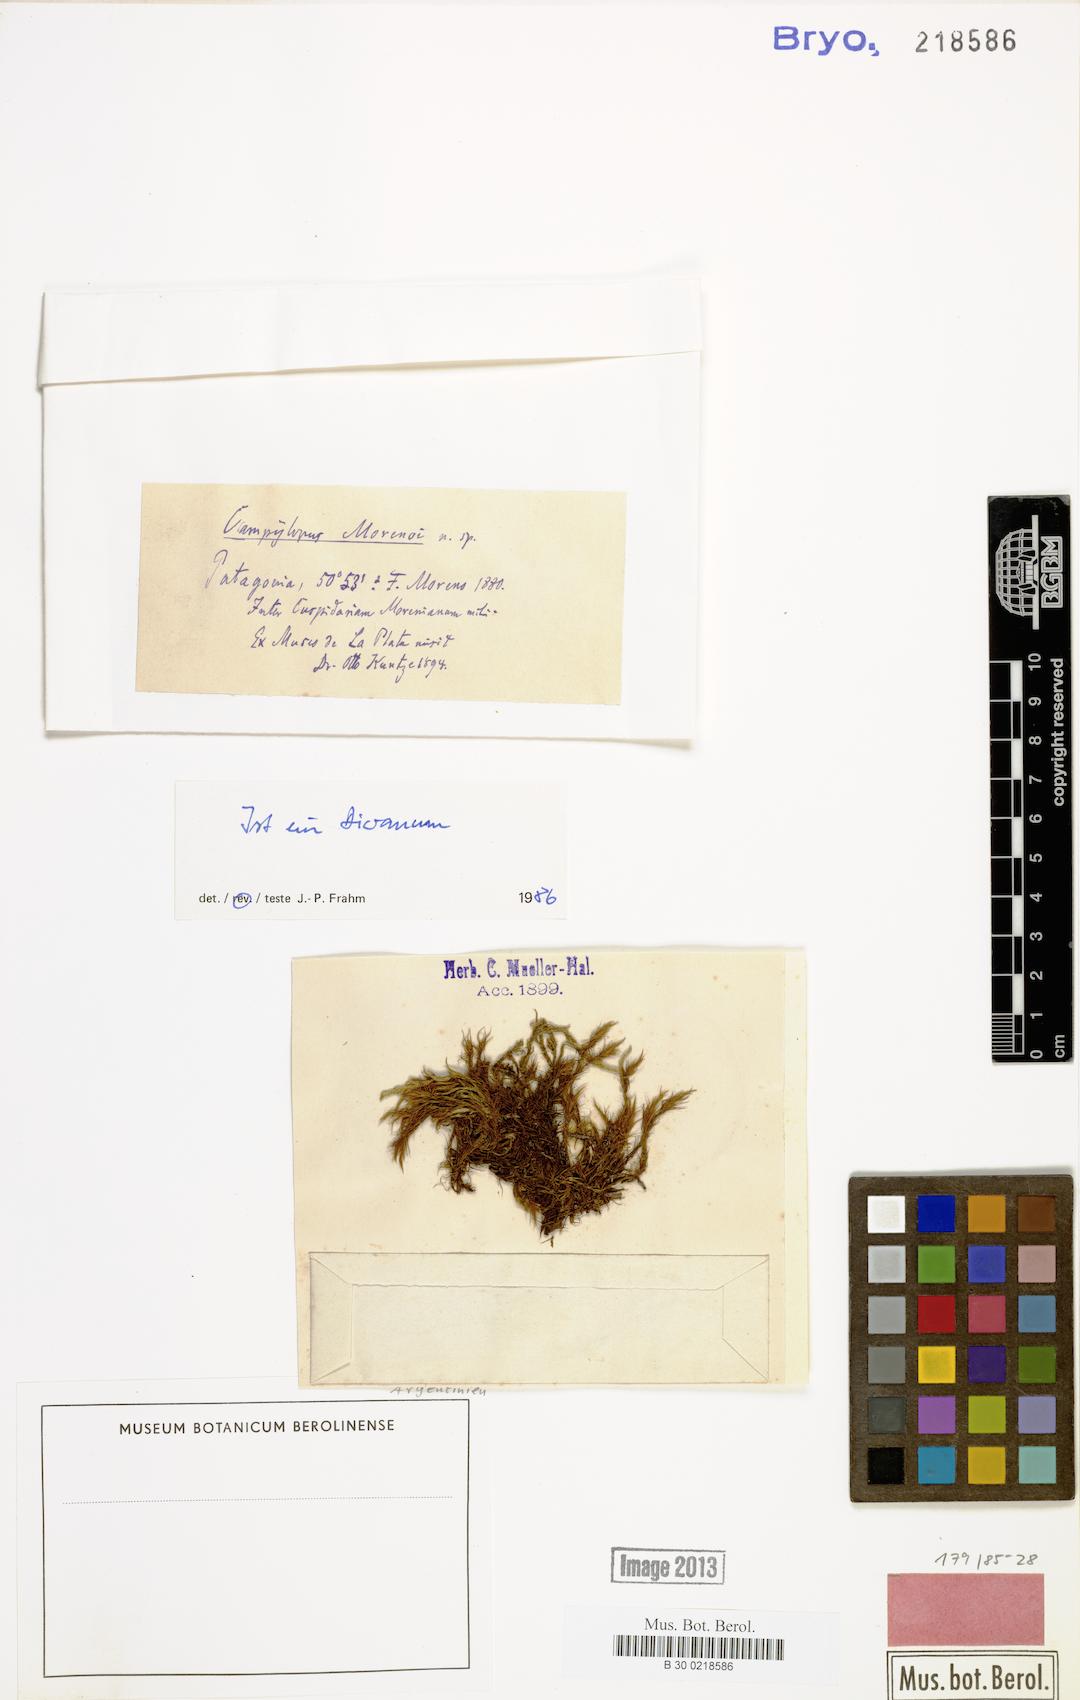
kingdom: Plantae
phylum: Bryophyta
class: Bryopsida
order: Dicranales
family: Dicranaceae
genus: Dicranum
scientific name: Dicranum
